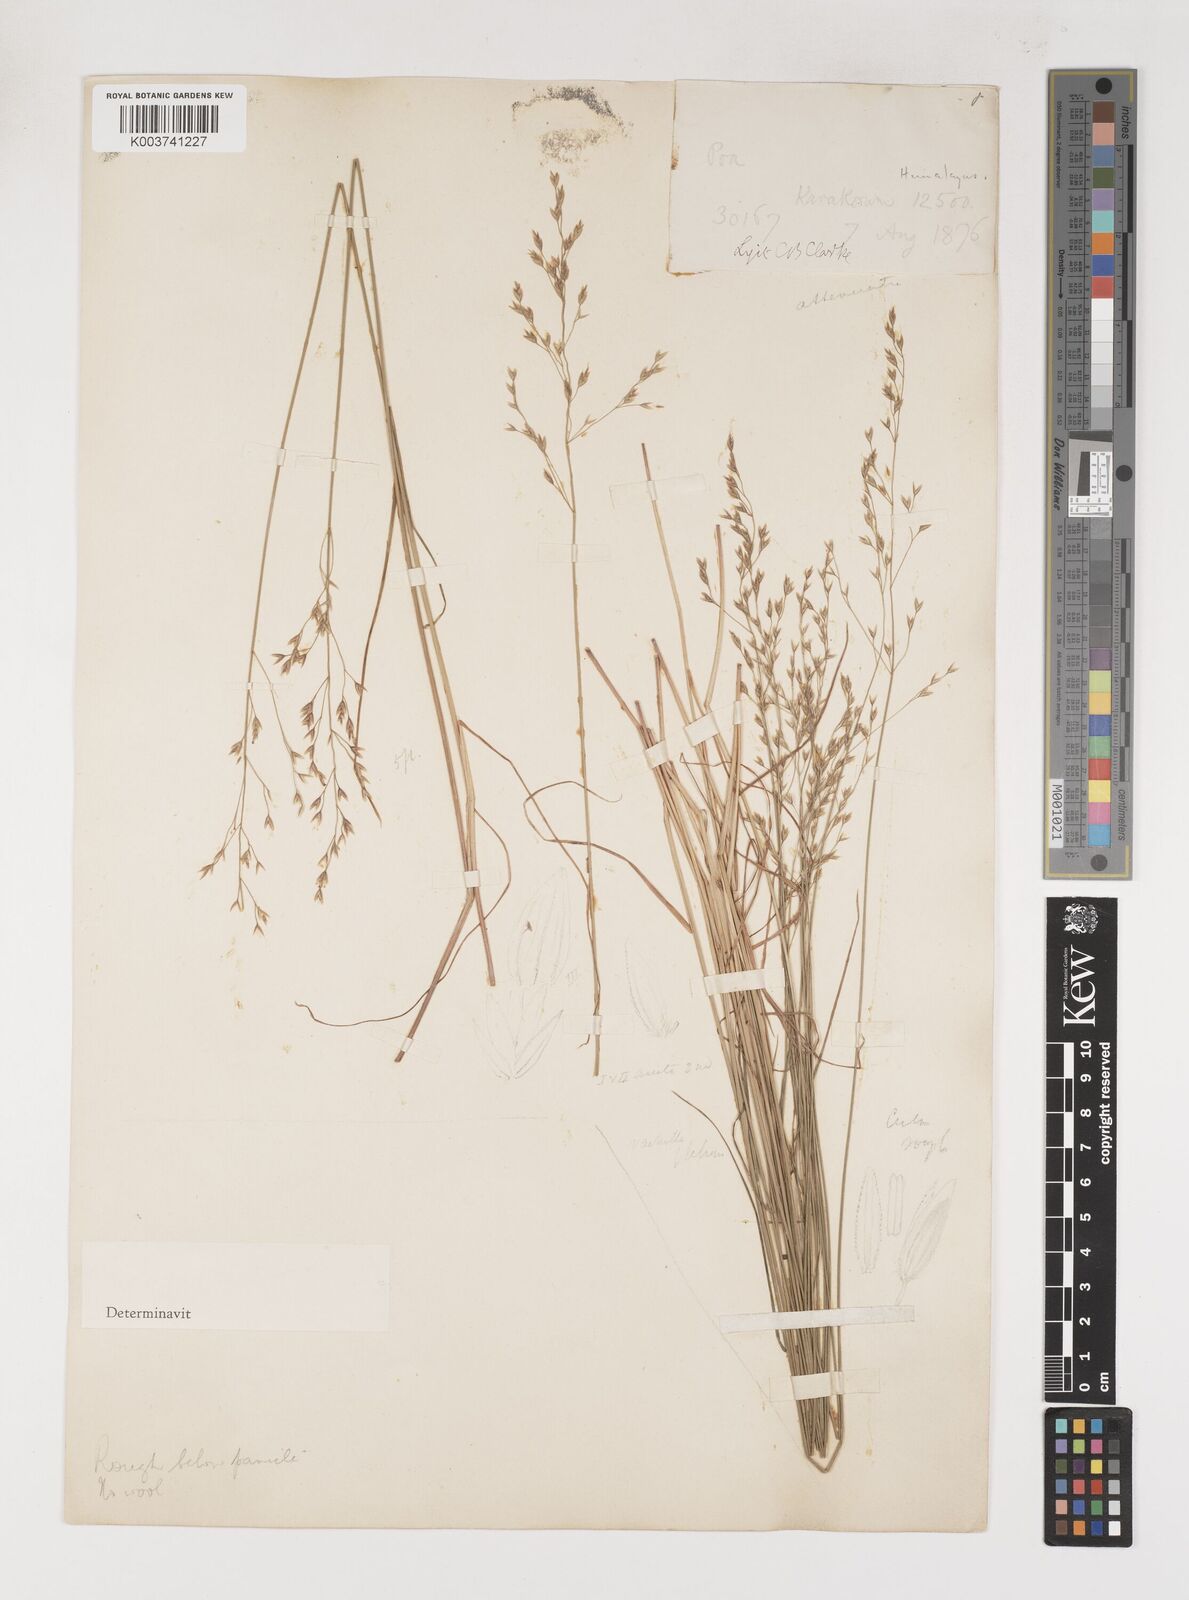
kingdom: Plantae
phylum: Tracheophyta
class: Liliopsida
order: Poales
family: Poaceae
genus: Poa
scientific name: Poa araratica
